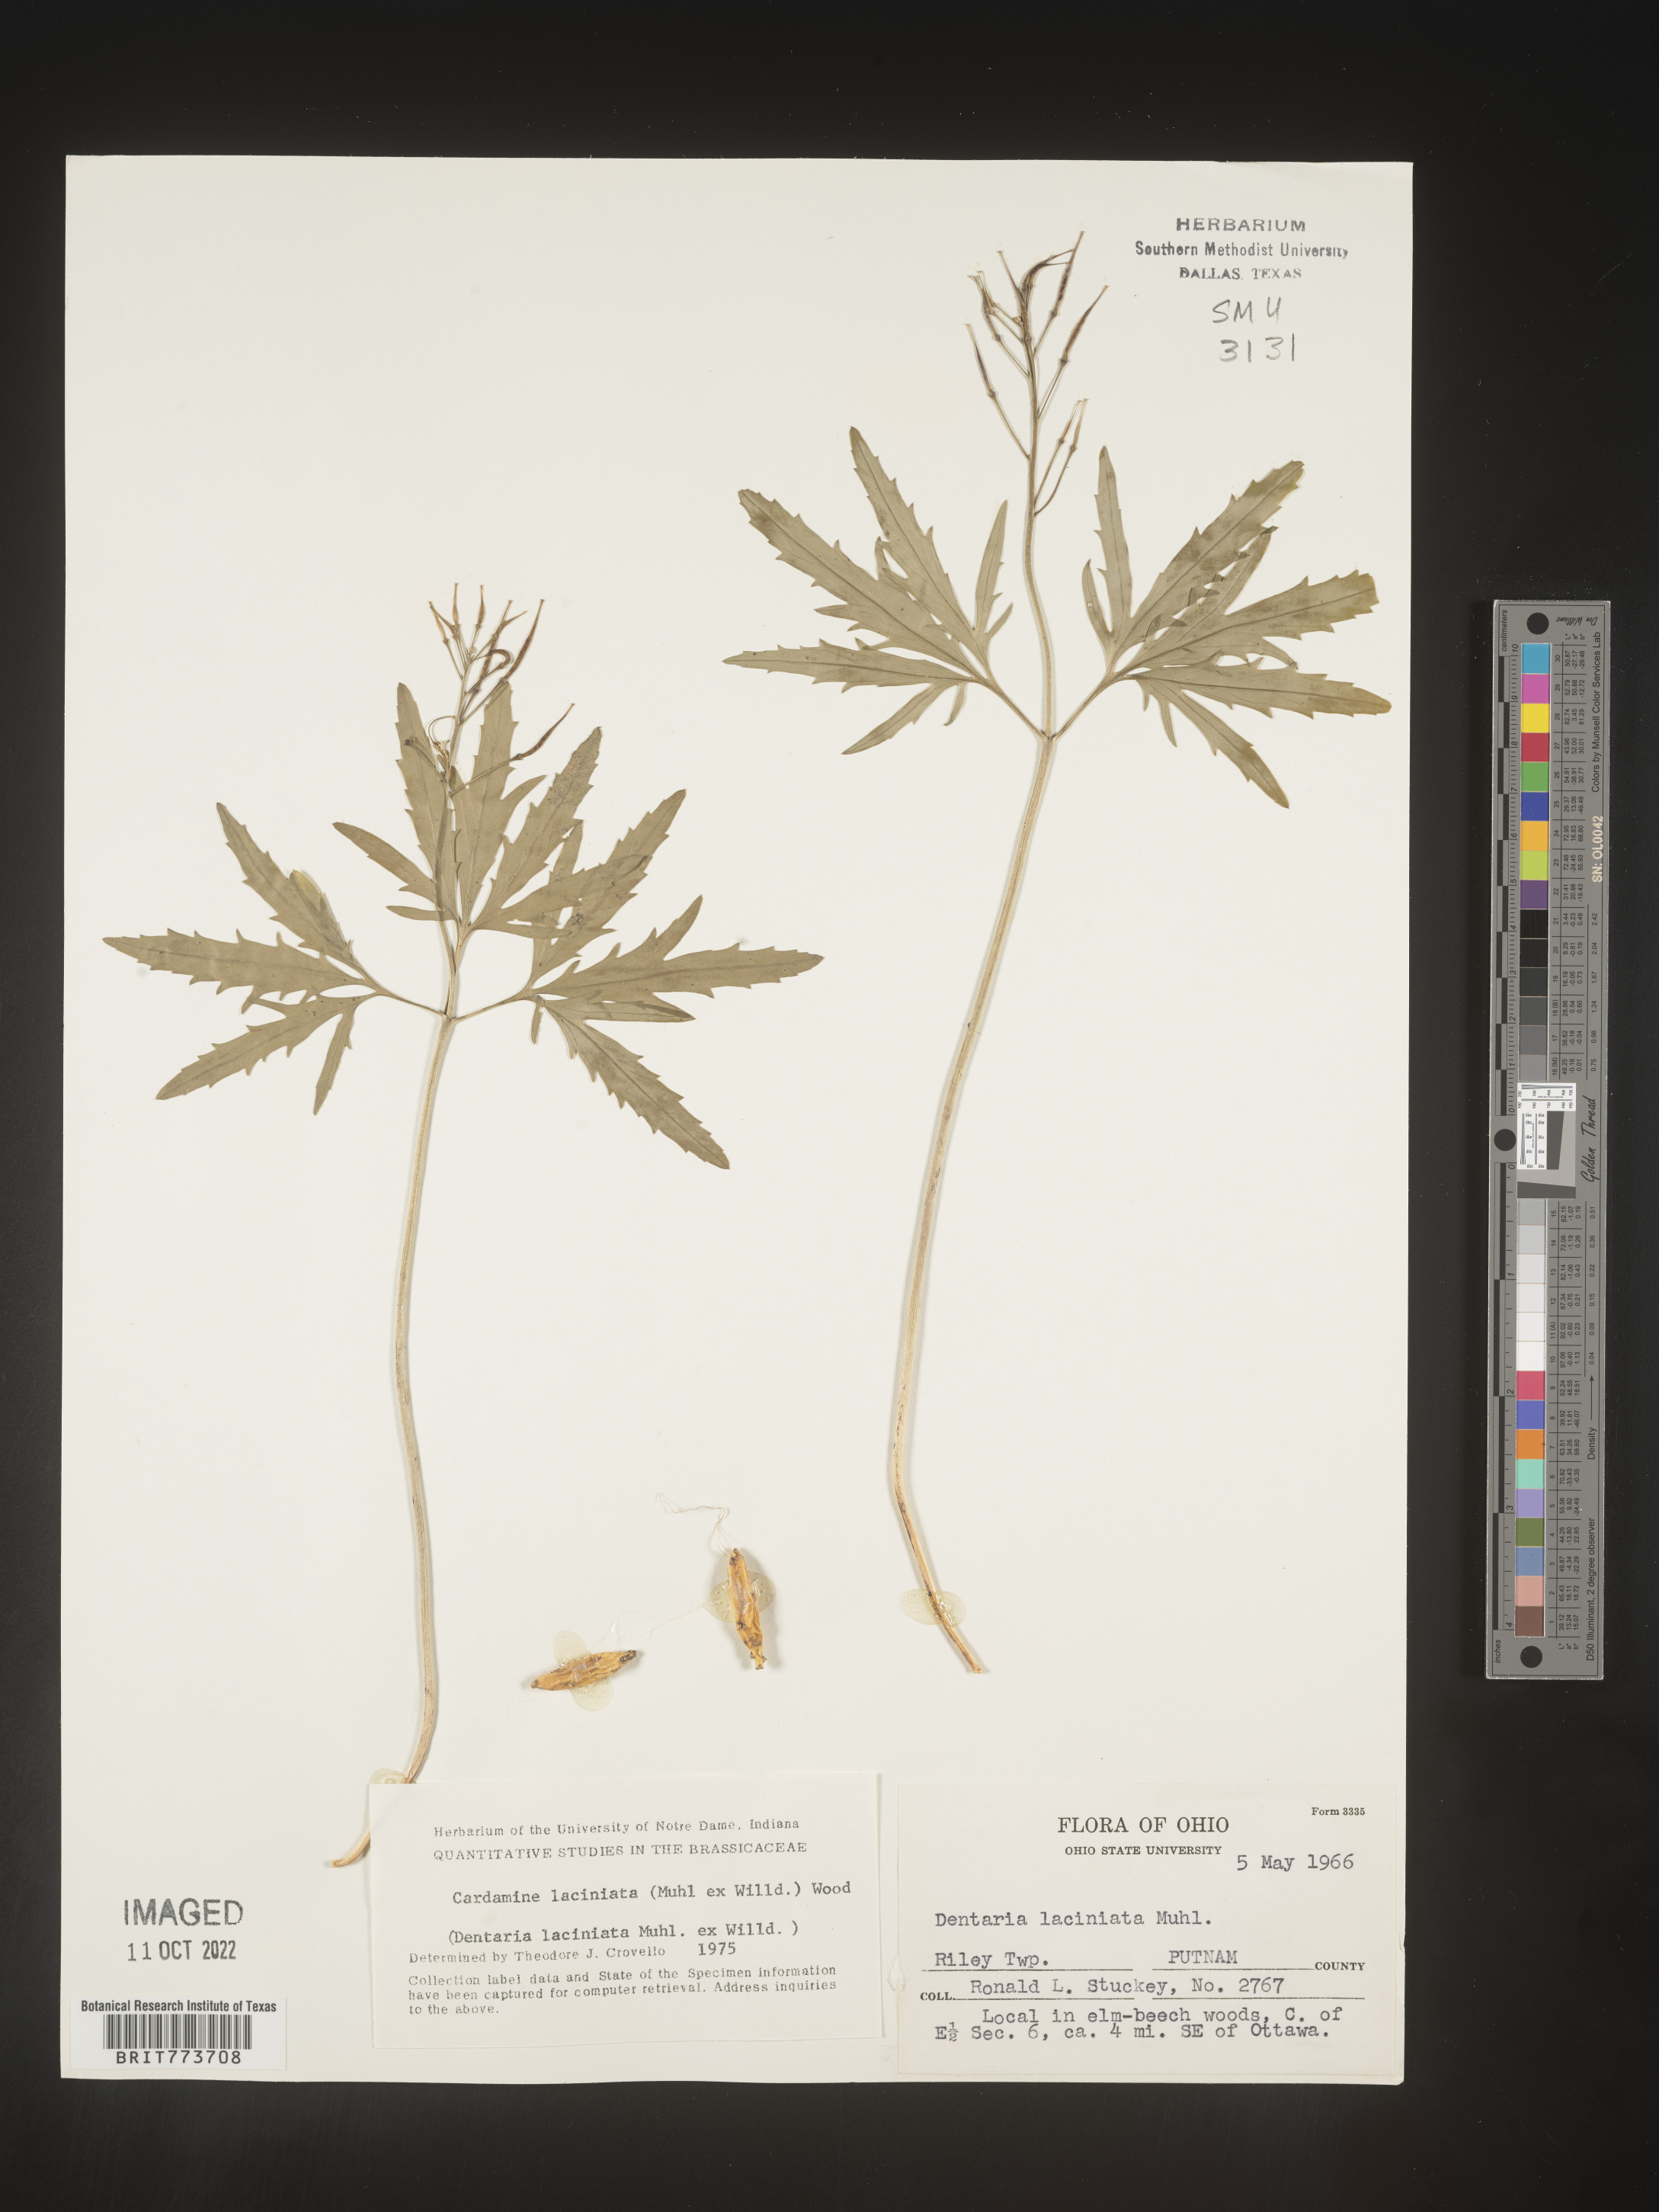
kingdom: Plantae
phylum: Tracheophyta
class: Magnoliopsida
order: Brassicales
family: Brassicaceae
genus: Rorippa
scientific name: Rorippa laciniata
